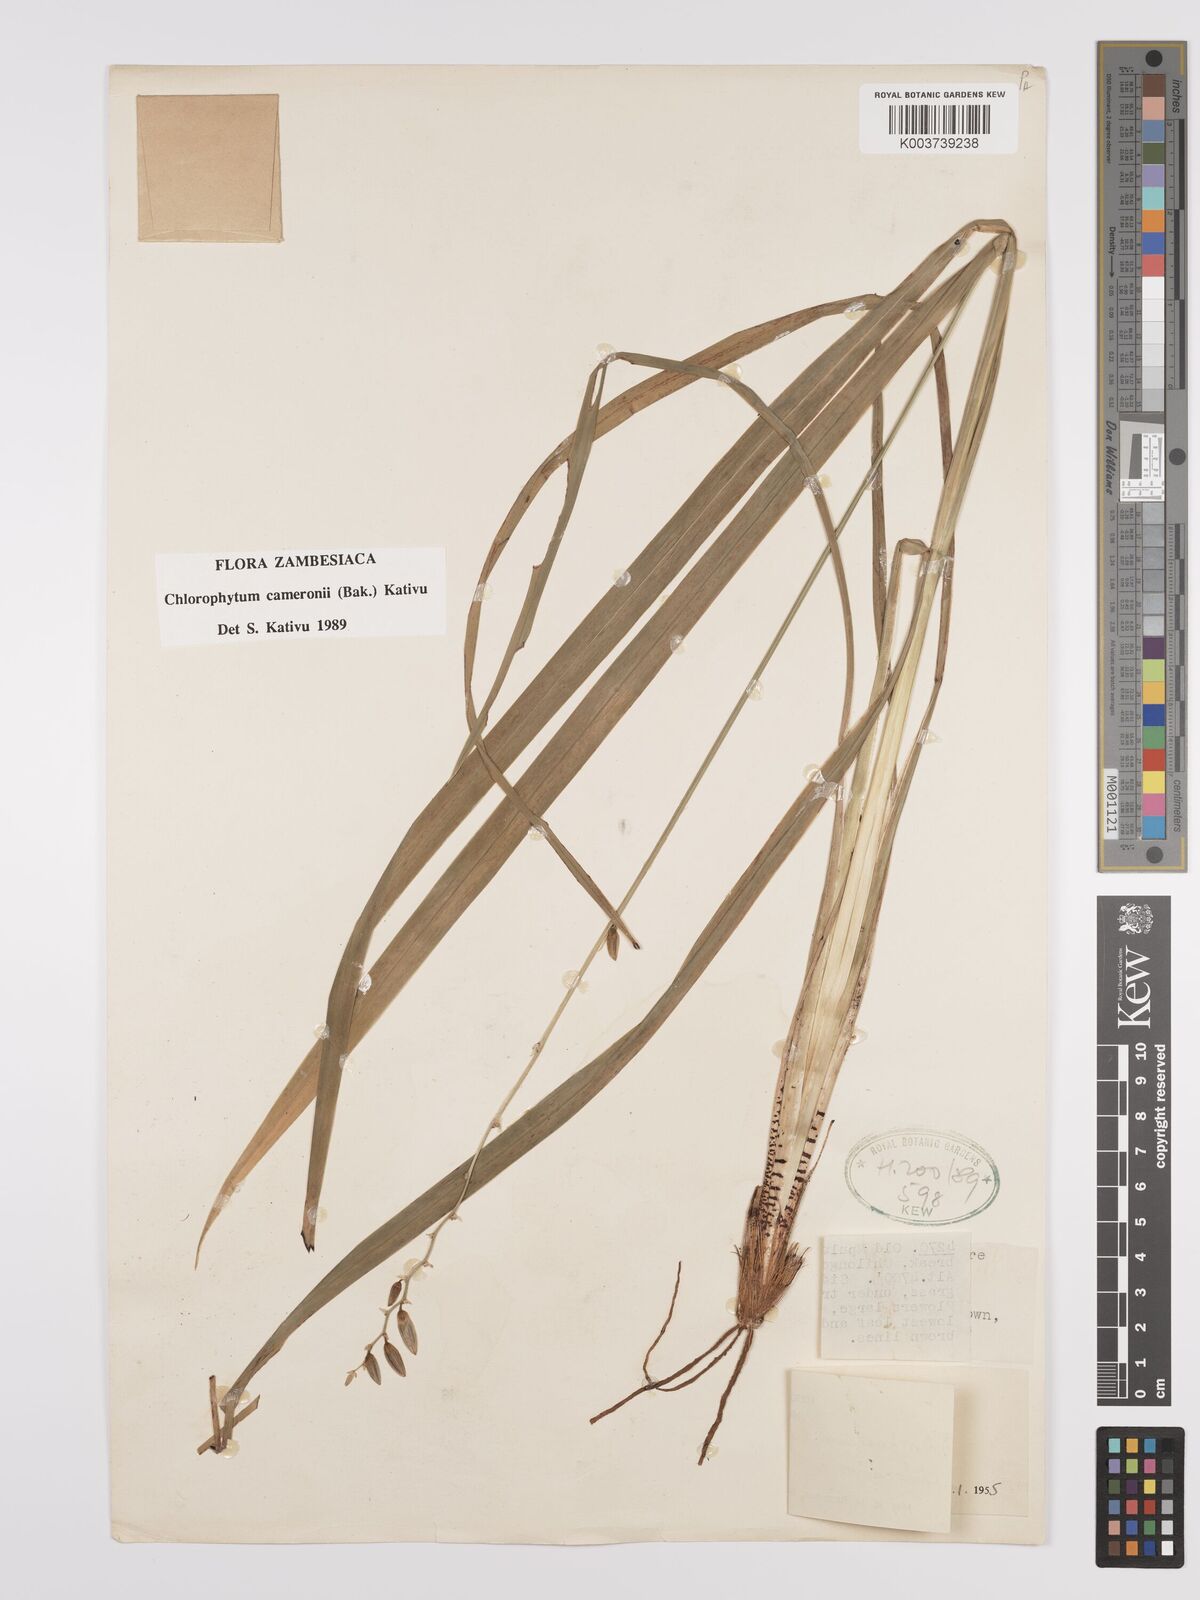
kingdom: Plantae
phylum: Tracheophyta
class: Liliopsida
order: Asparagales
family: Asparagaceae
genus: Chlorophytum
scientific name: Chlorophytum cameronii
